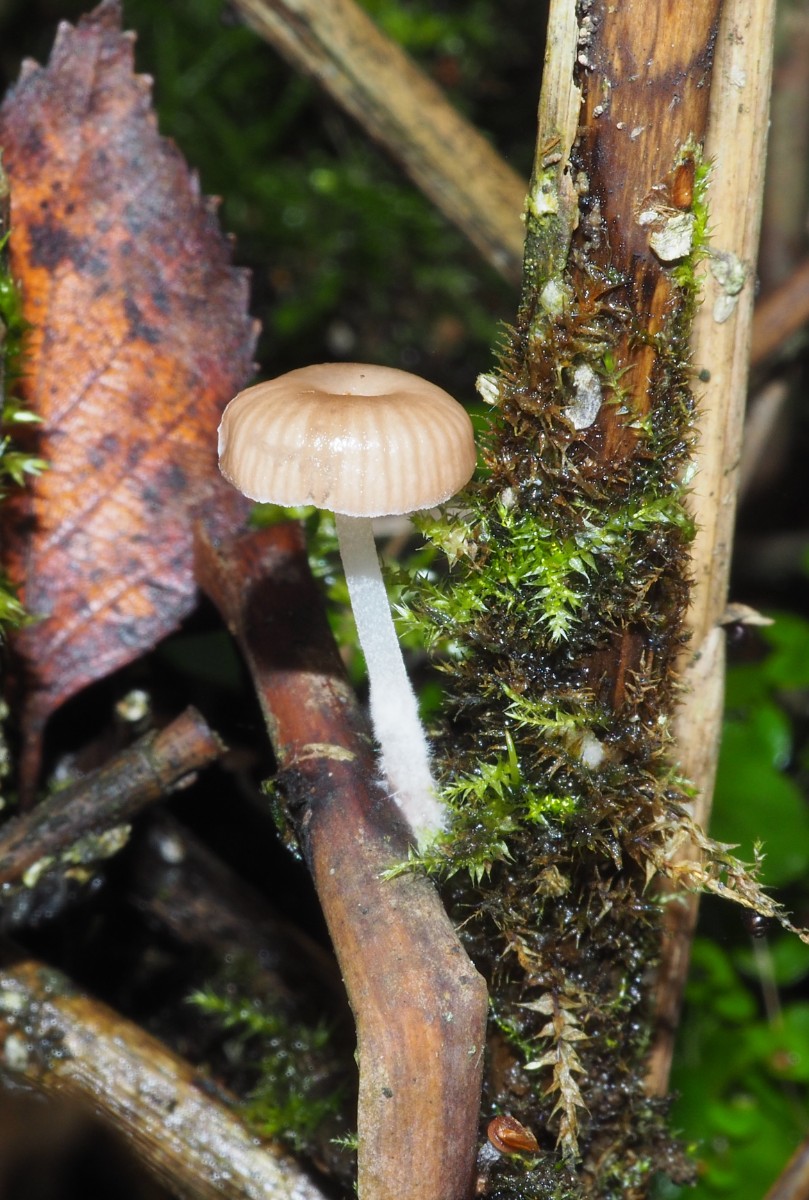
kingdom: Fungi
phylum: Basidiomycota
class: Agaricomycetes
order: Agaricales
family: Mycenaceae
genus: Mycena
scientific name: Mycena belliae
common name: tagrørs-huesvamp
